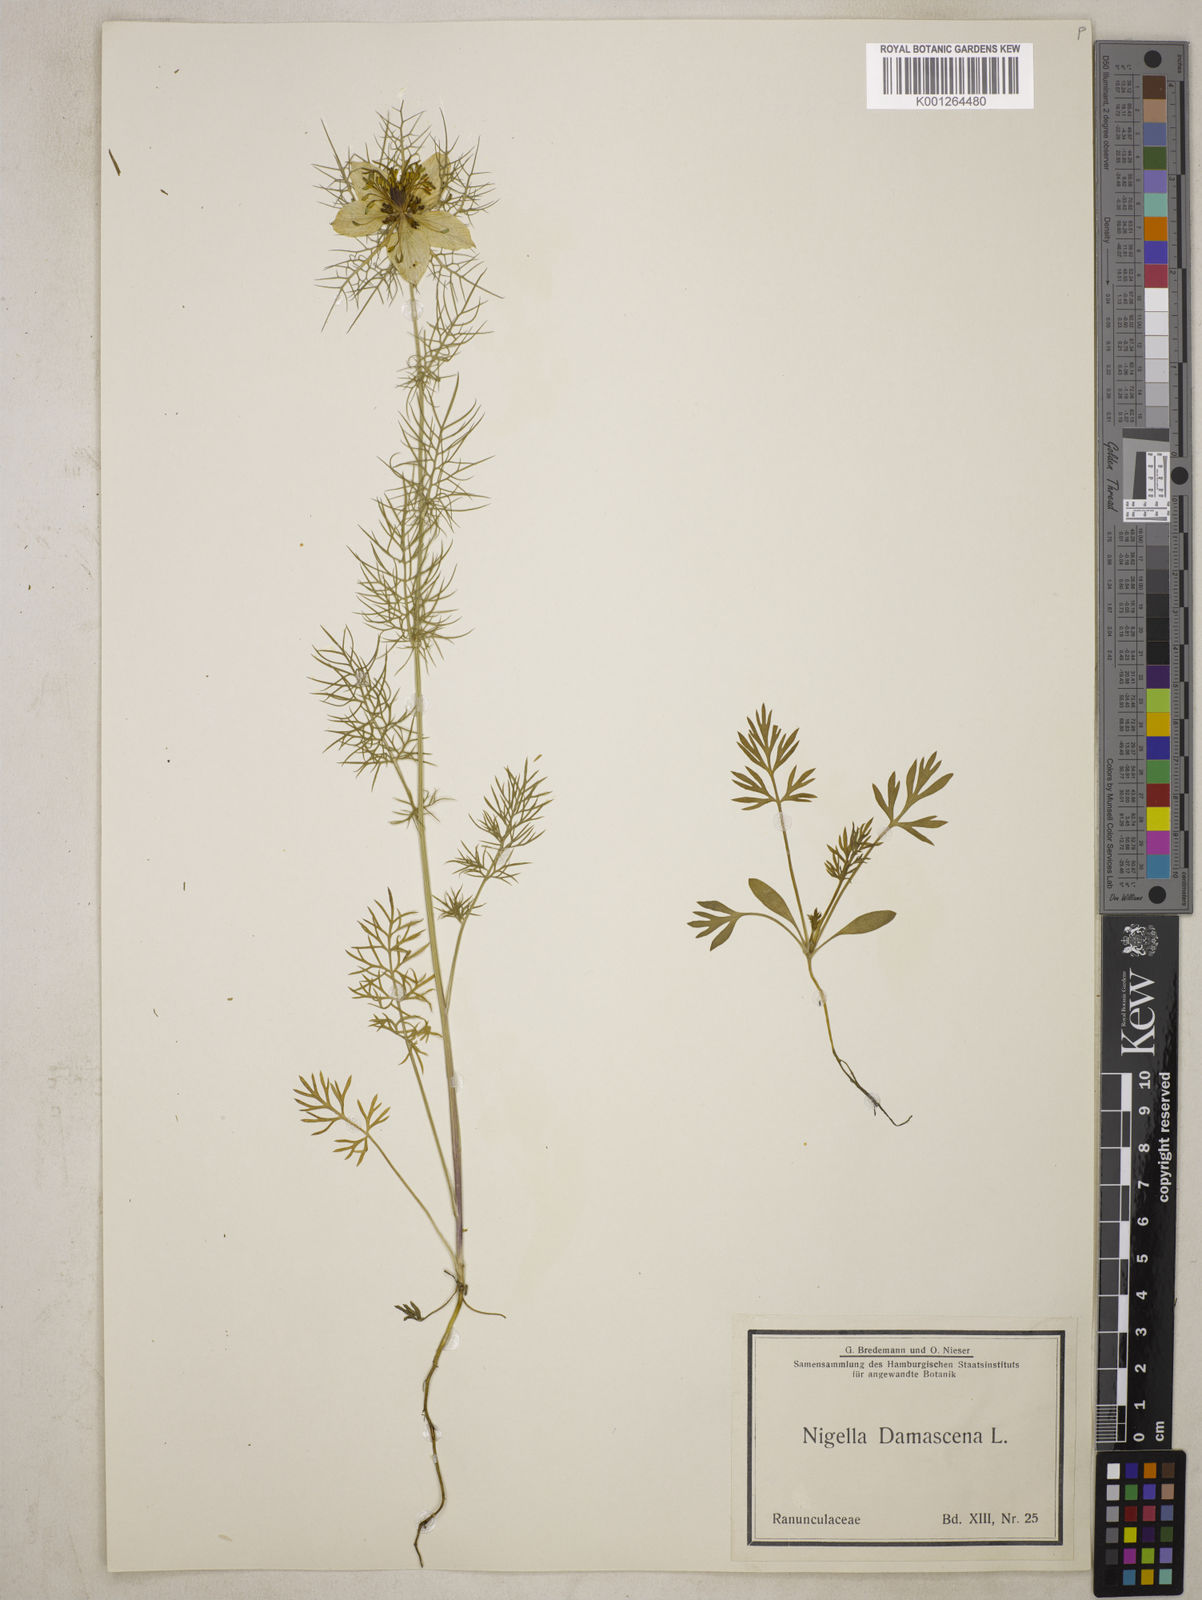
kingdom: Plantae
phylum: Tracheophyta
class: Magnoliopsida
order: Ranunculales
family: Ranunculaceae
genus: Nigella
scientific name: Nigella damascena
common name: Love-in-a-mist
